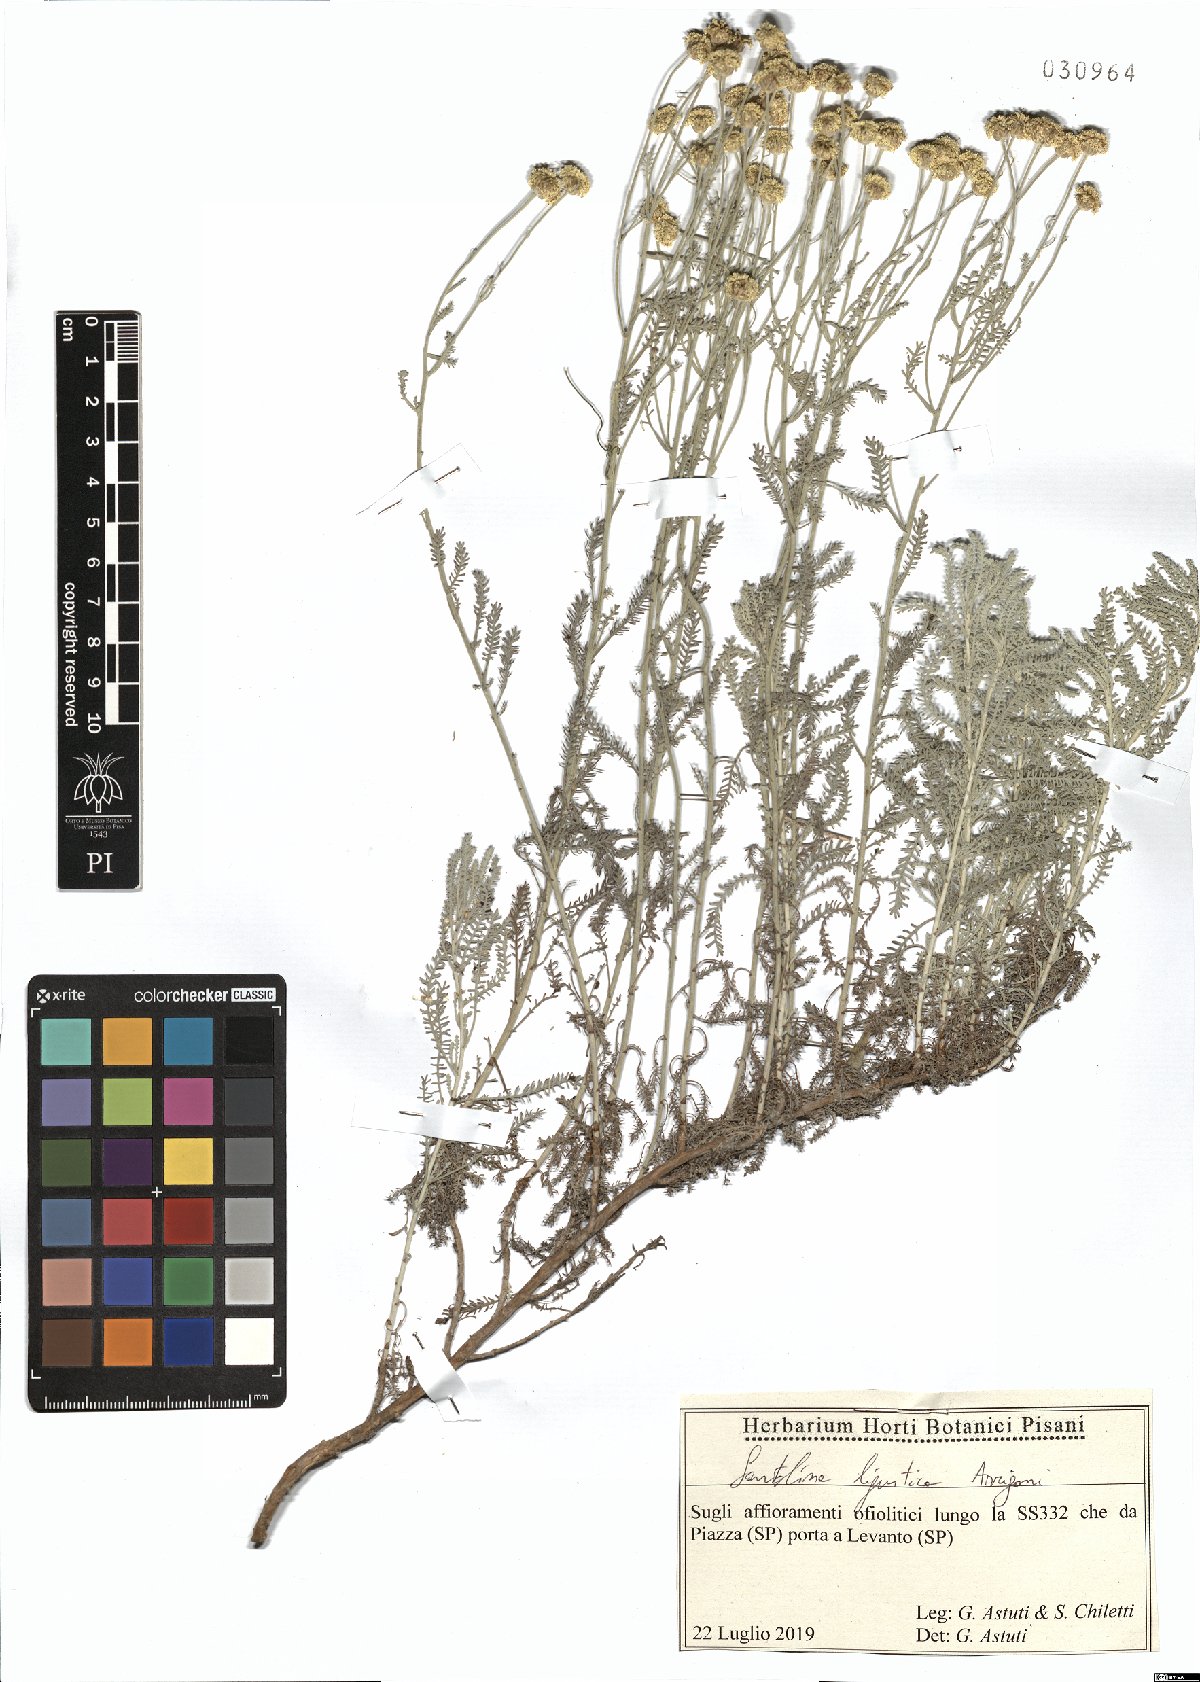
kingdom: Plantae
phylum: Tracheophyta
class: Magnoliopsida
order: Asterales
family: Asteraceae
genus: Santolina
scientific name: Santolina ligustica
